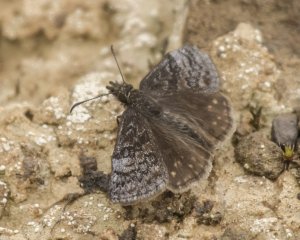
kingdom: Animalia
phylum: Arthropoda
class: Insecta
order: Lepidoptera
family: Hesperiidae
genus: Erynnis
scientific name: Erynnis icelus
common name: Dreamy Duskywing
